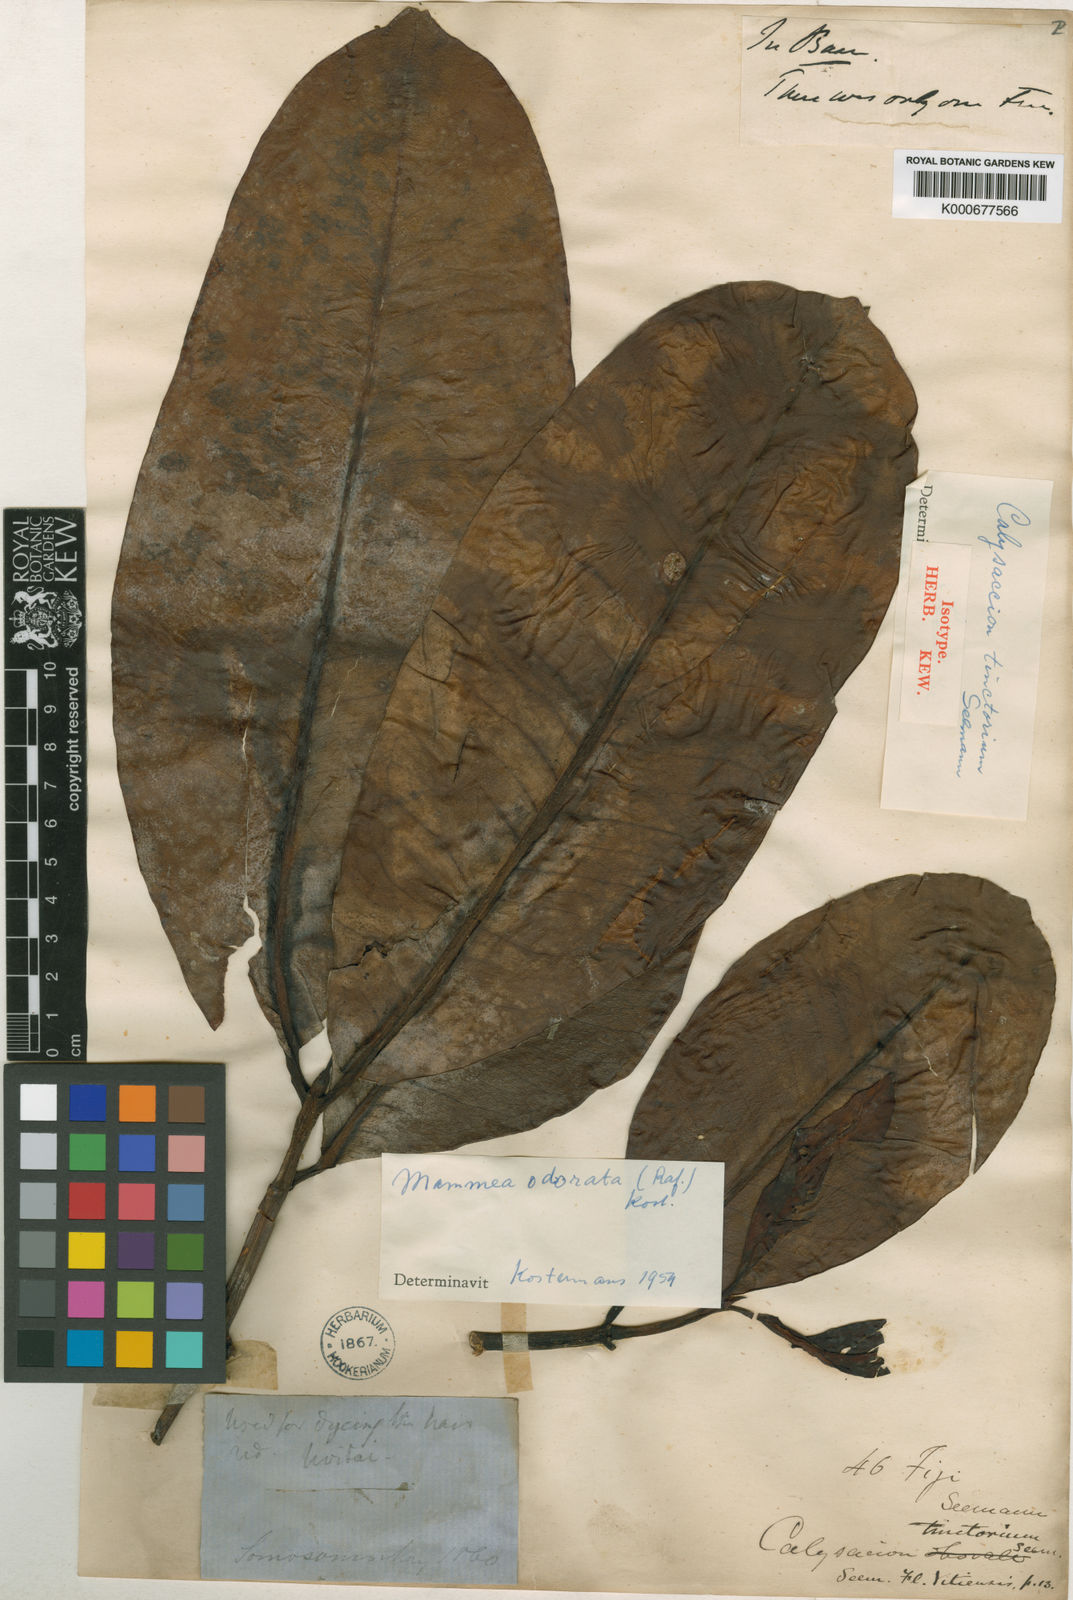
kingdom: Plantae
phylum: Tracheophyta
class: Magnoliopsida
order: Malpighiales
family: Calophyllaceae
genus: Mammea
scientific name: Mammea odorata
